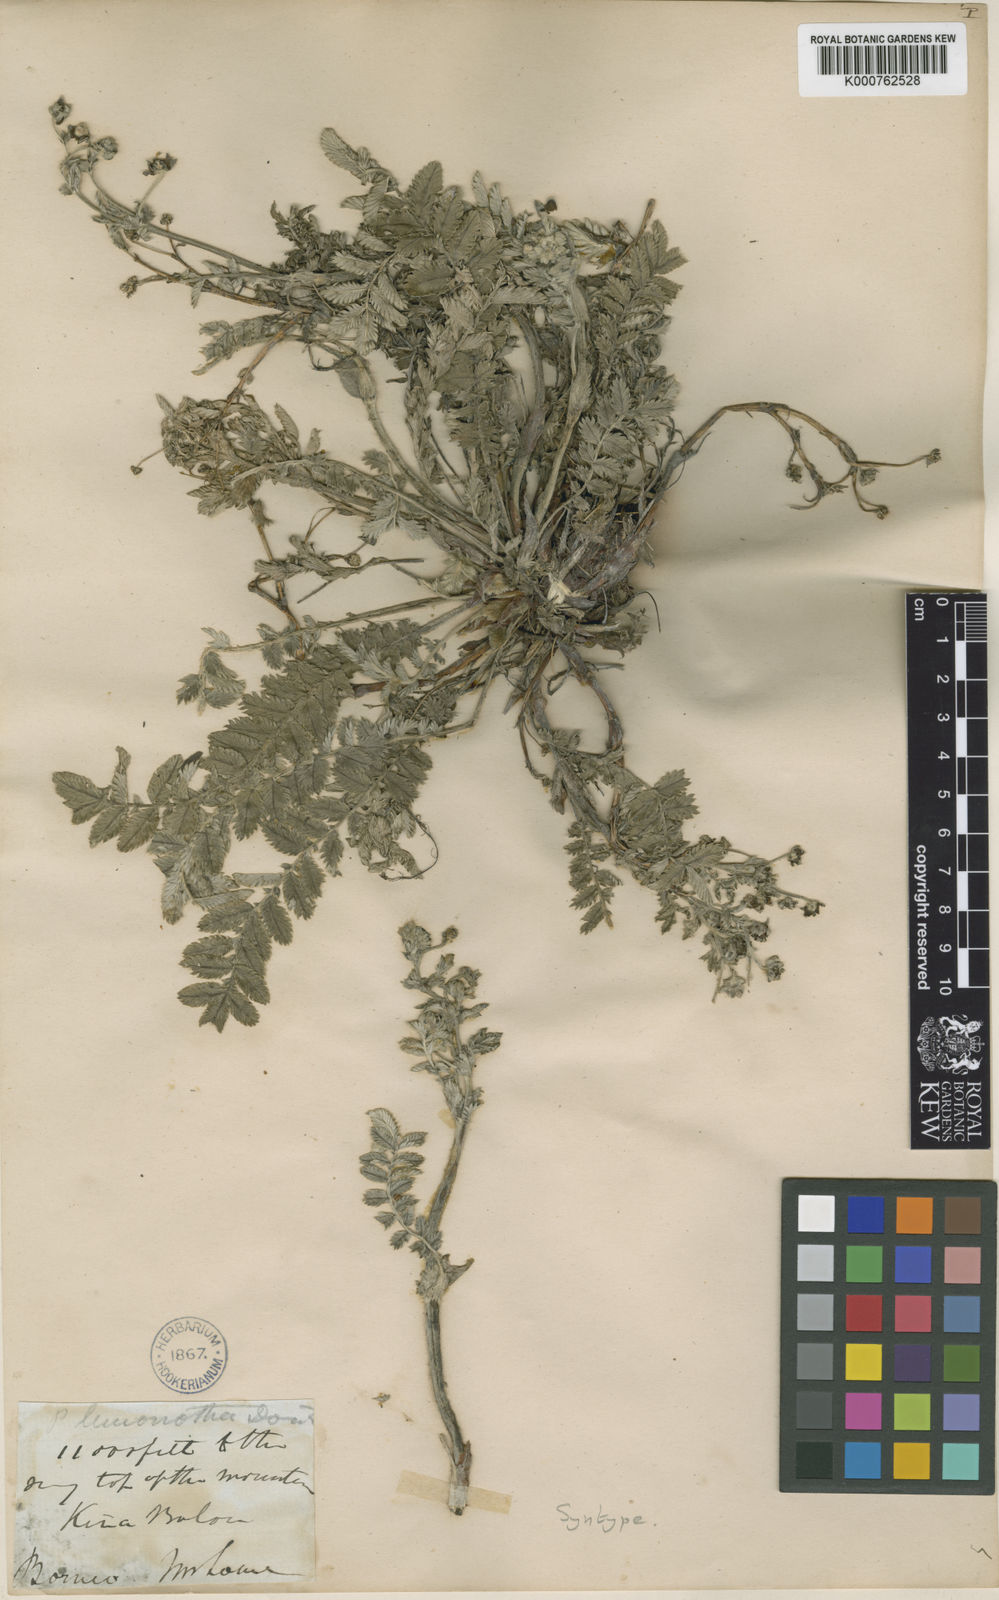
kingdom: Plantae
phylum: Tracheophyta
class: Magnoliopsida
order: Rosales
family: Rosaceae
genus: Argentina
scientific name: Argentina borneensis
